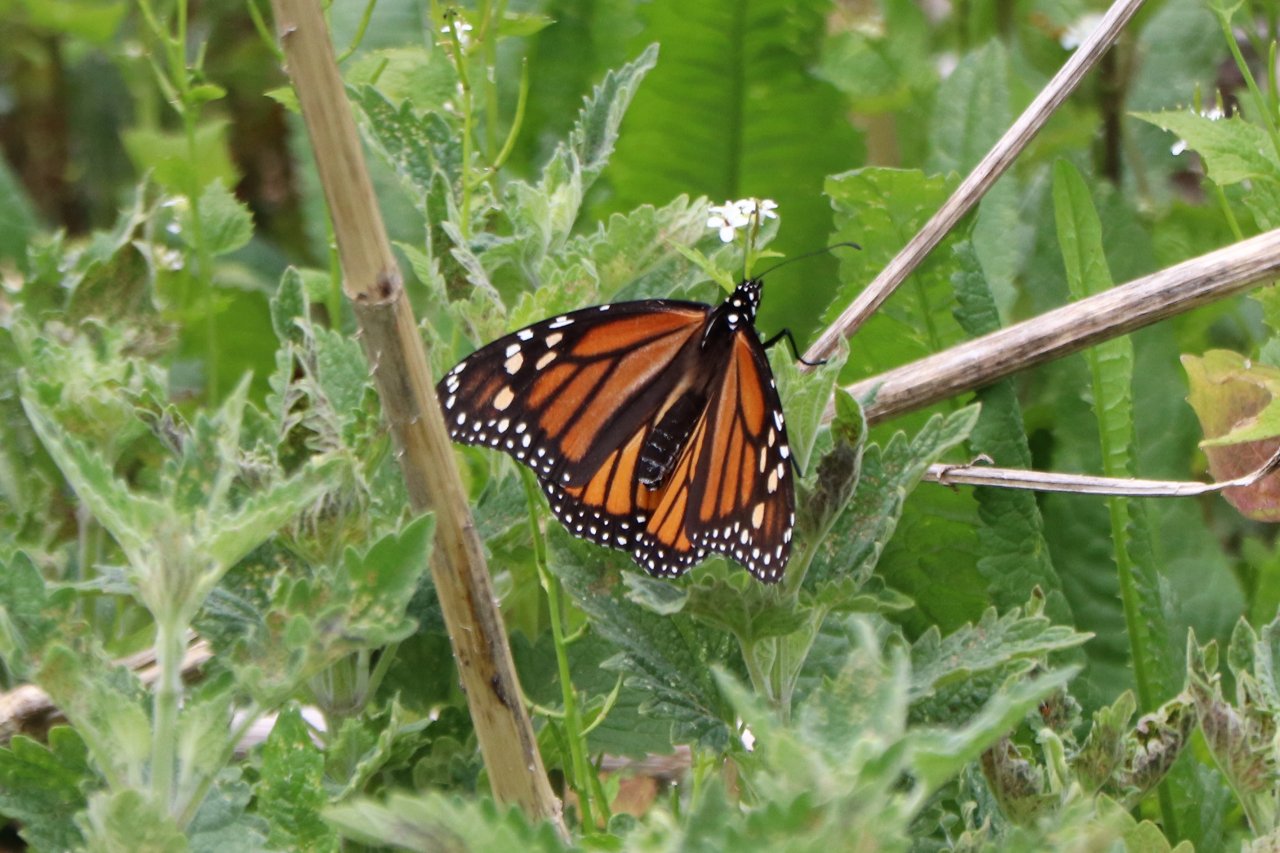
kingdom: Animalia
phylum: Arthropoda
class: Insecta
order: Lepidoptera
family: Nymphalidae
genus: Danaus
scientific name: Danaus plexippus
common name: Monarch
